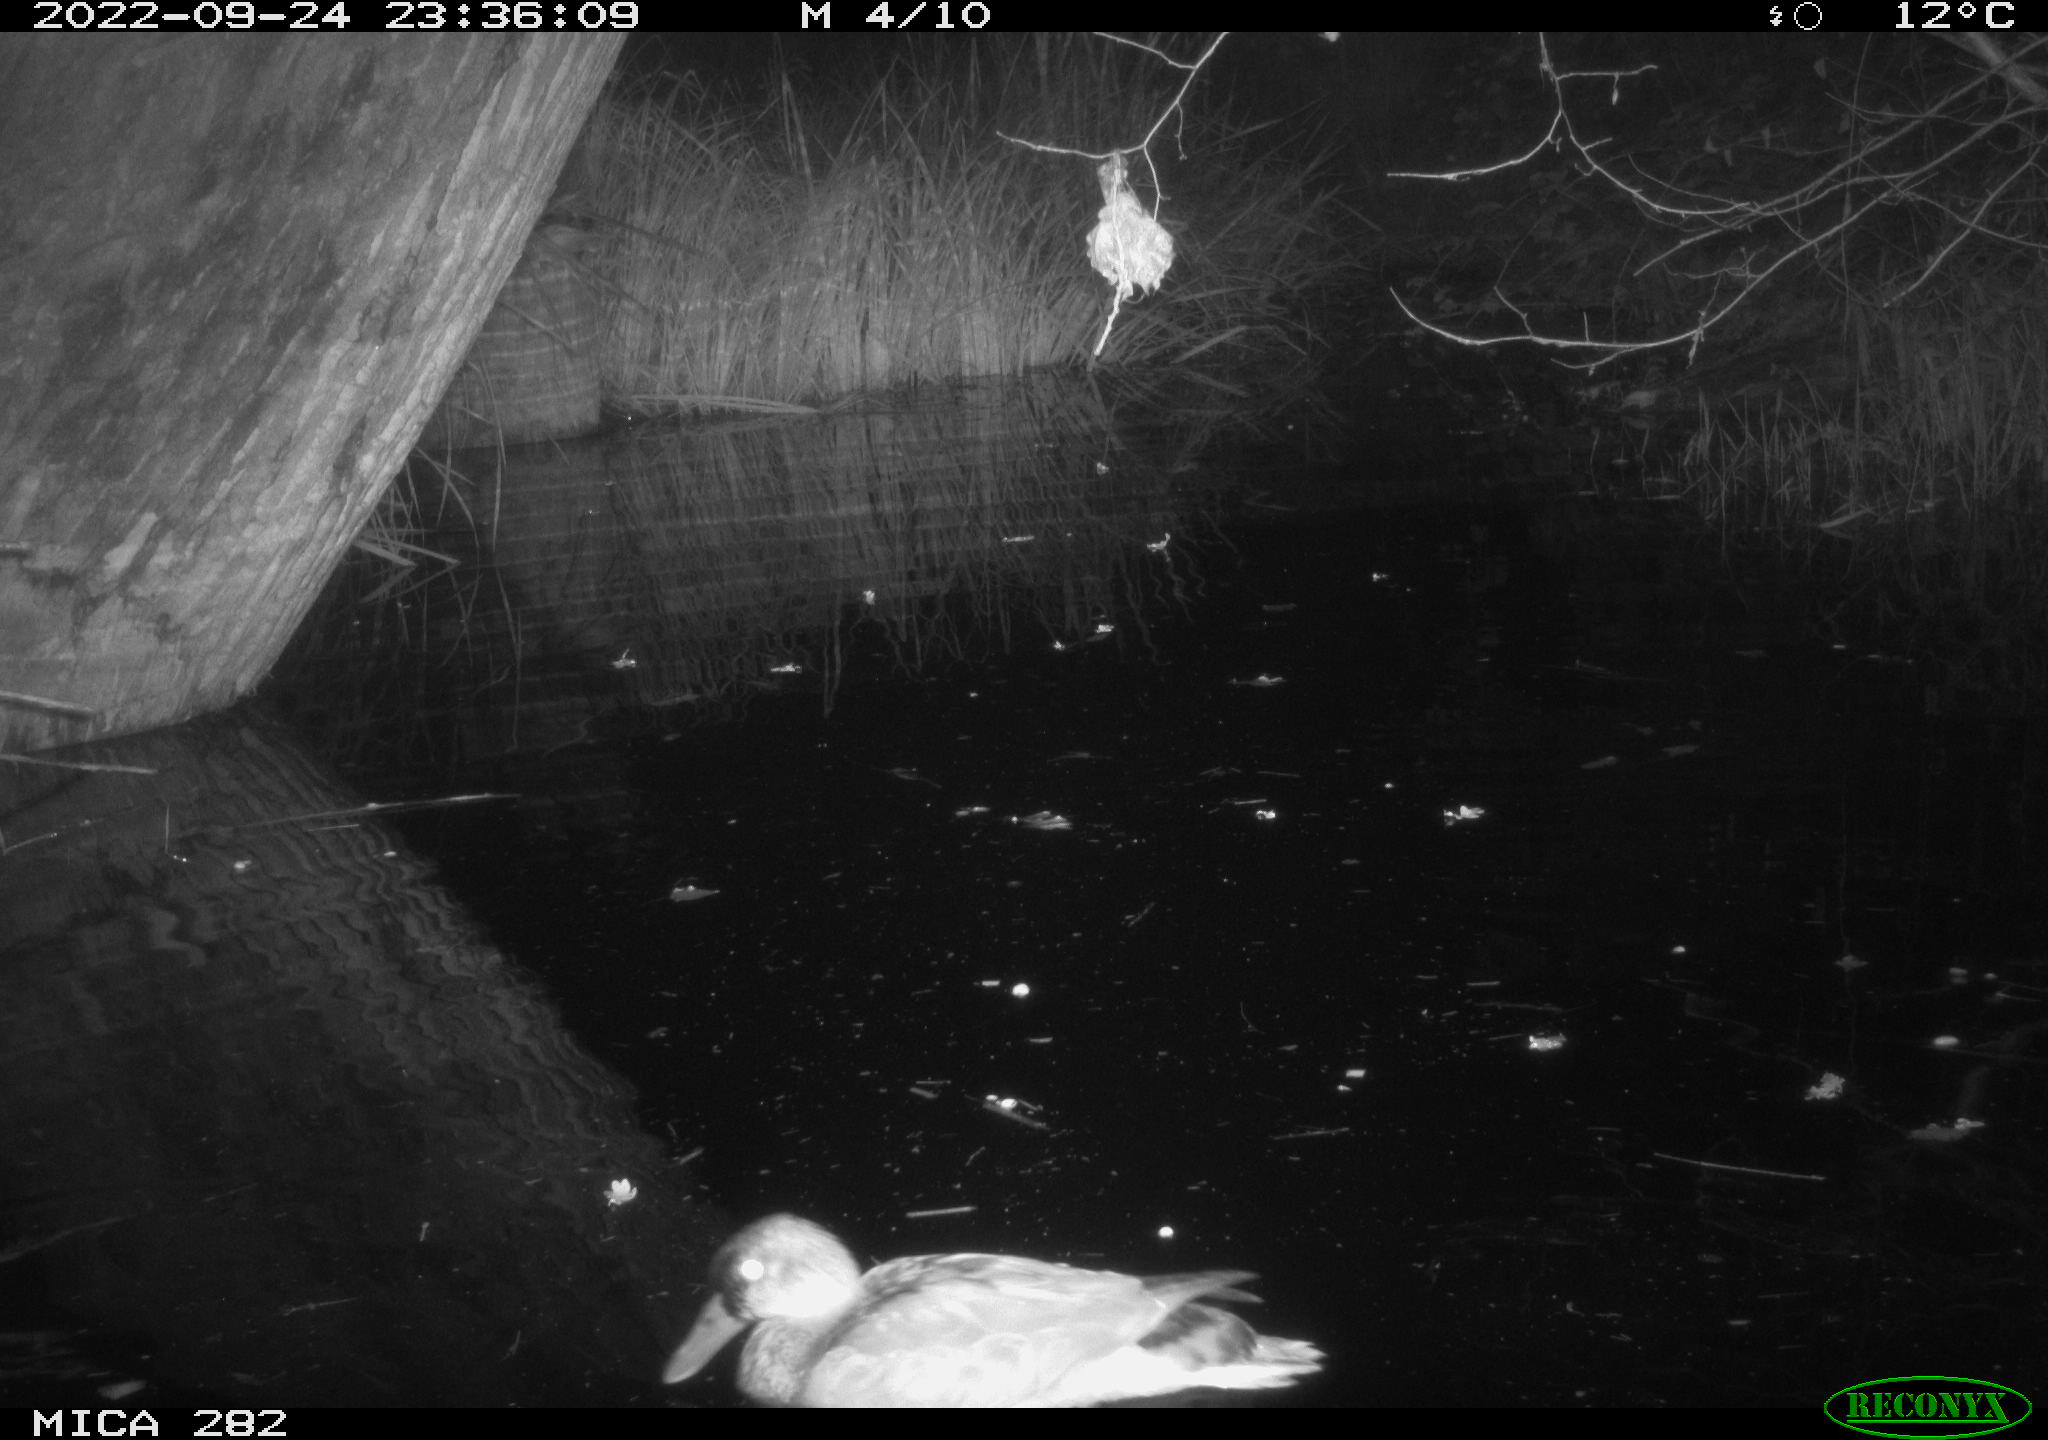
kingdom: Animalia
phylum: Chordata
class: Aves
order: Anseriformes
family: Anatidae
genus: Anas
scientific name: Anas
